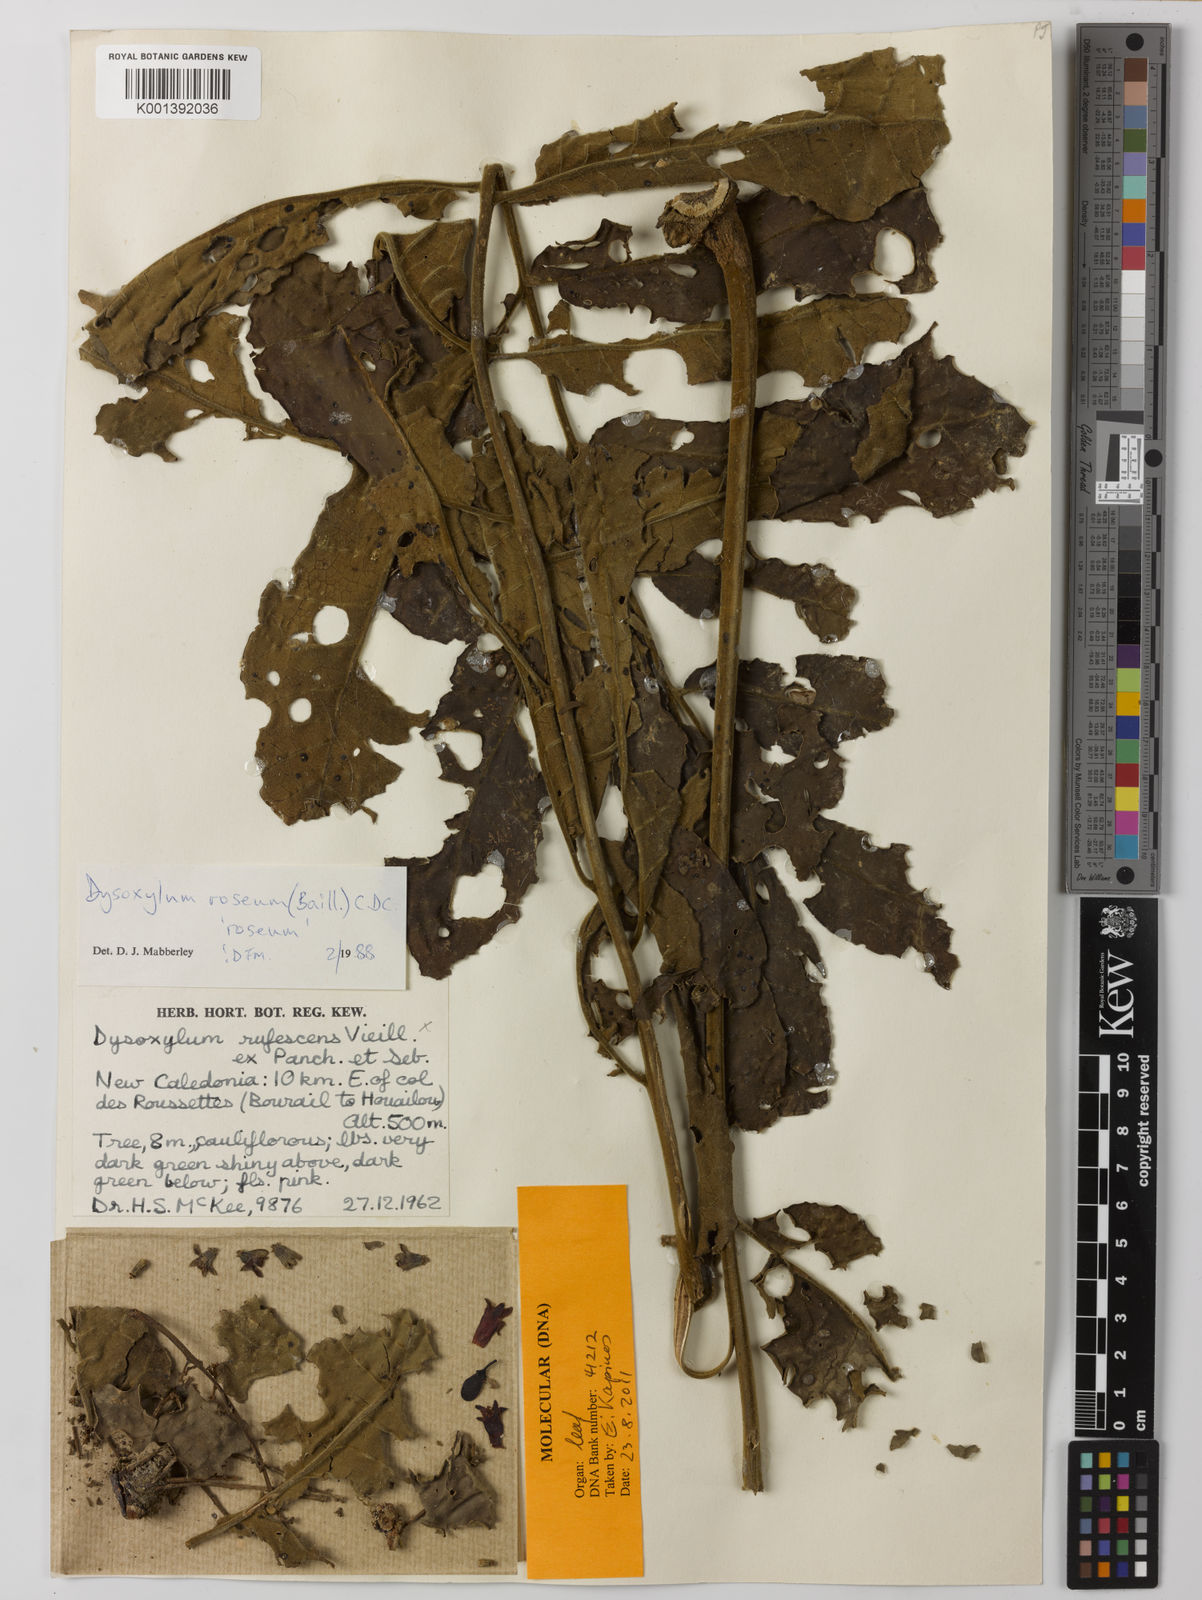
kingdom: Plantae
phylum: Tracheophyta
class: Magnoliopsida
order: Sapindales
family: Meliaceae
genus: Didymocheton
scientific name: Didymocheton roseus
